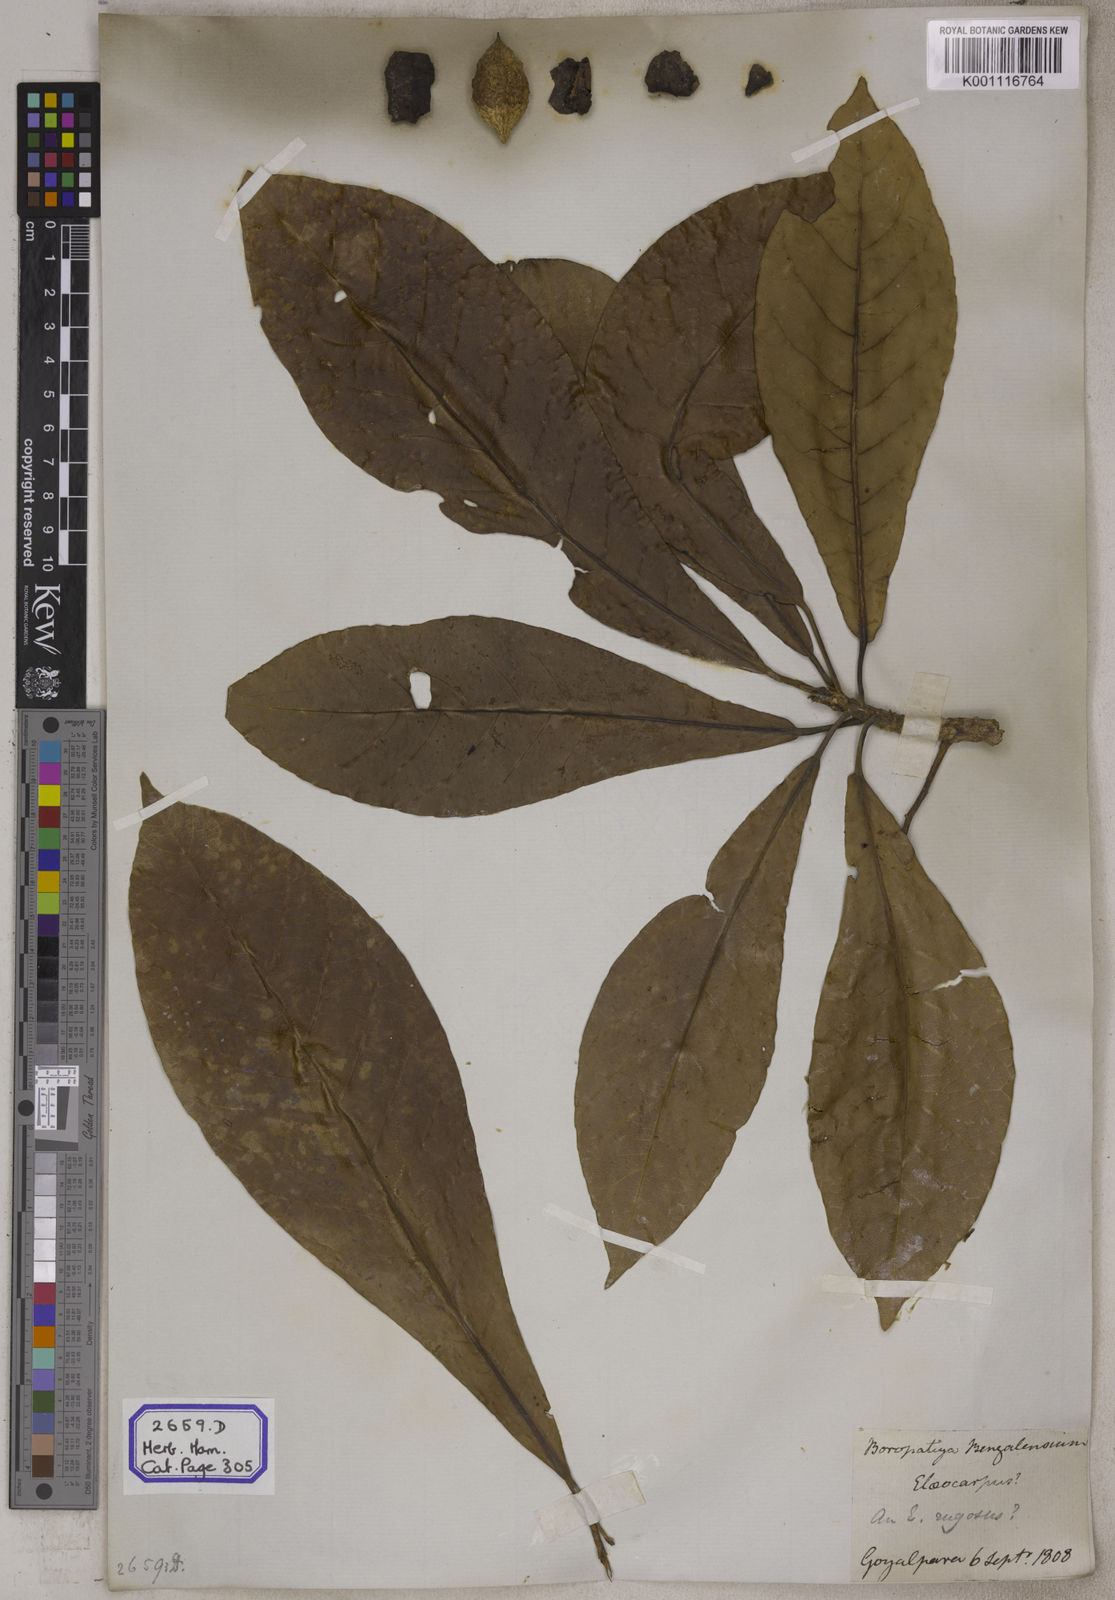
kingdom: Plantae
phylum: Tracheophyta
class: Magnoliopsida
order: Oxalidales
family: Elaeocarpaceae
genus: Elaeocarpus
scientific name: Elaeocarpus
